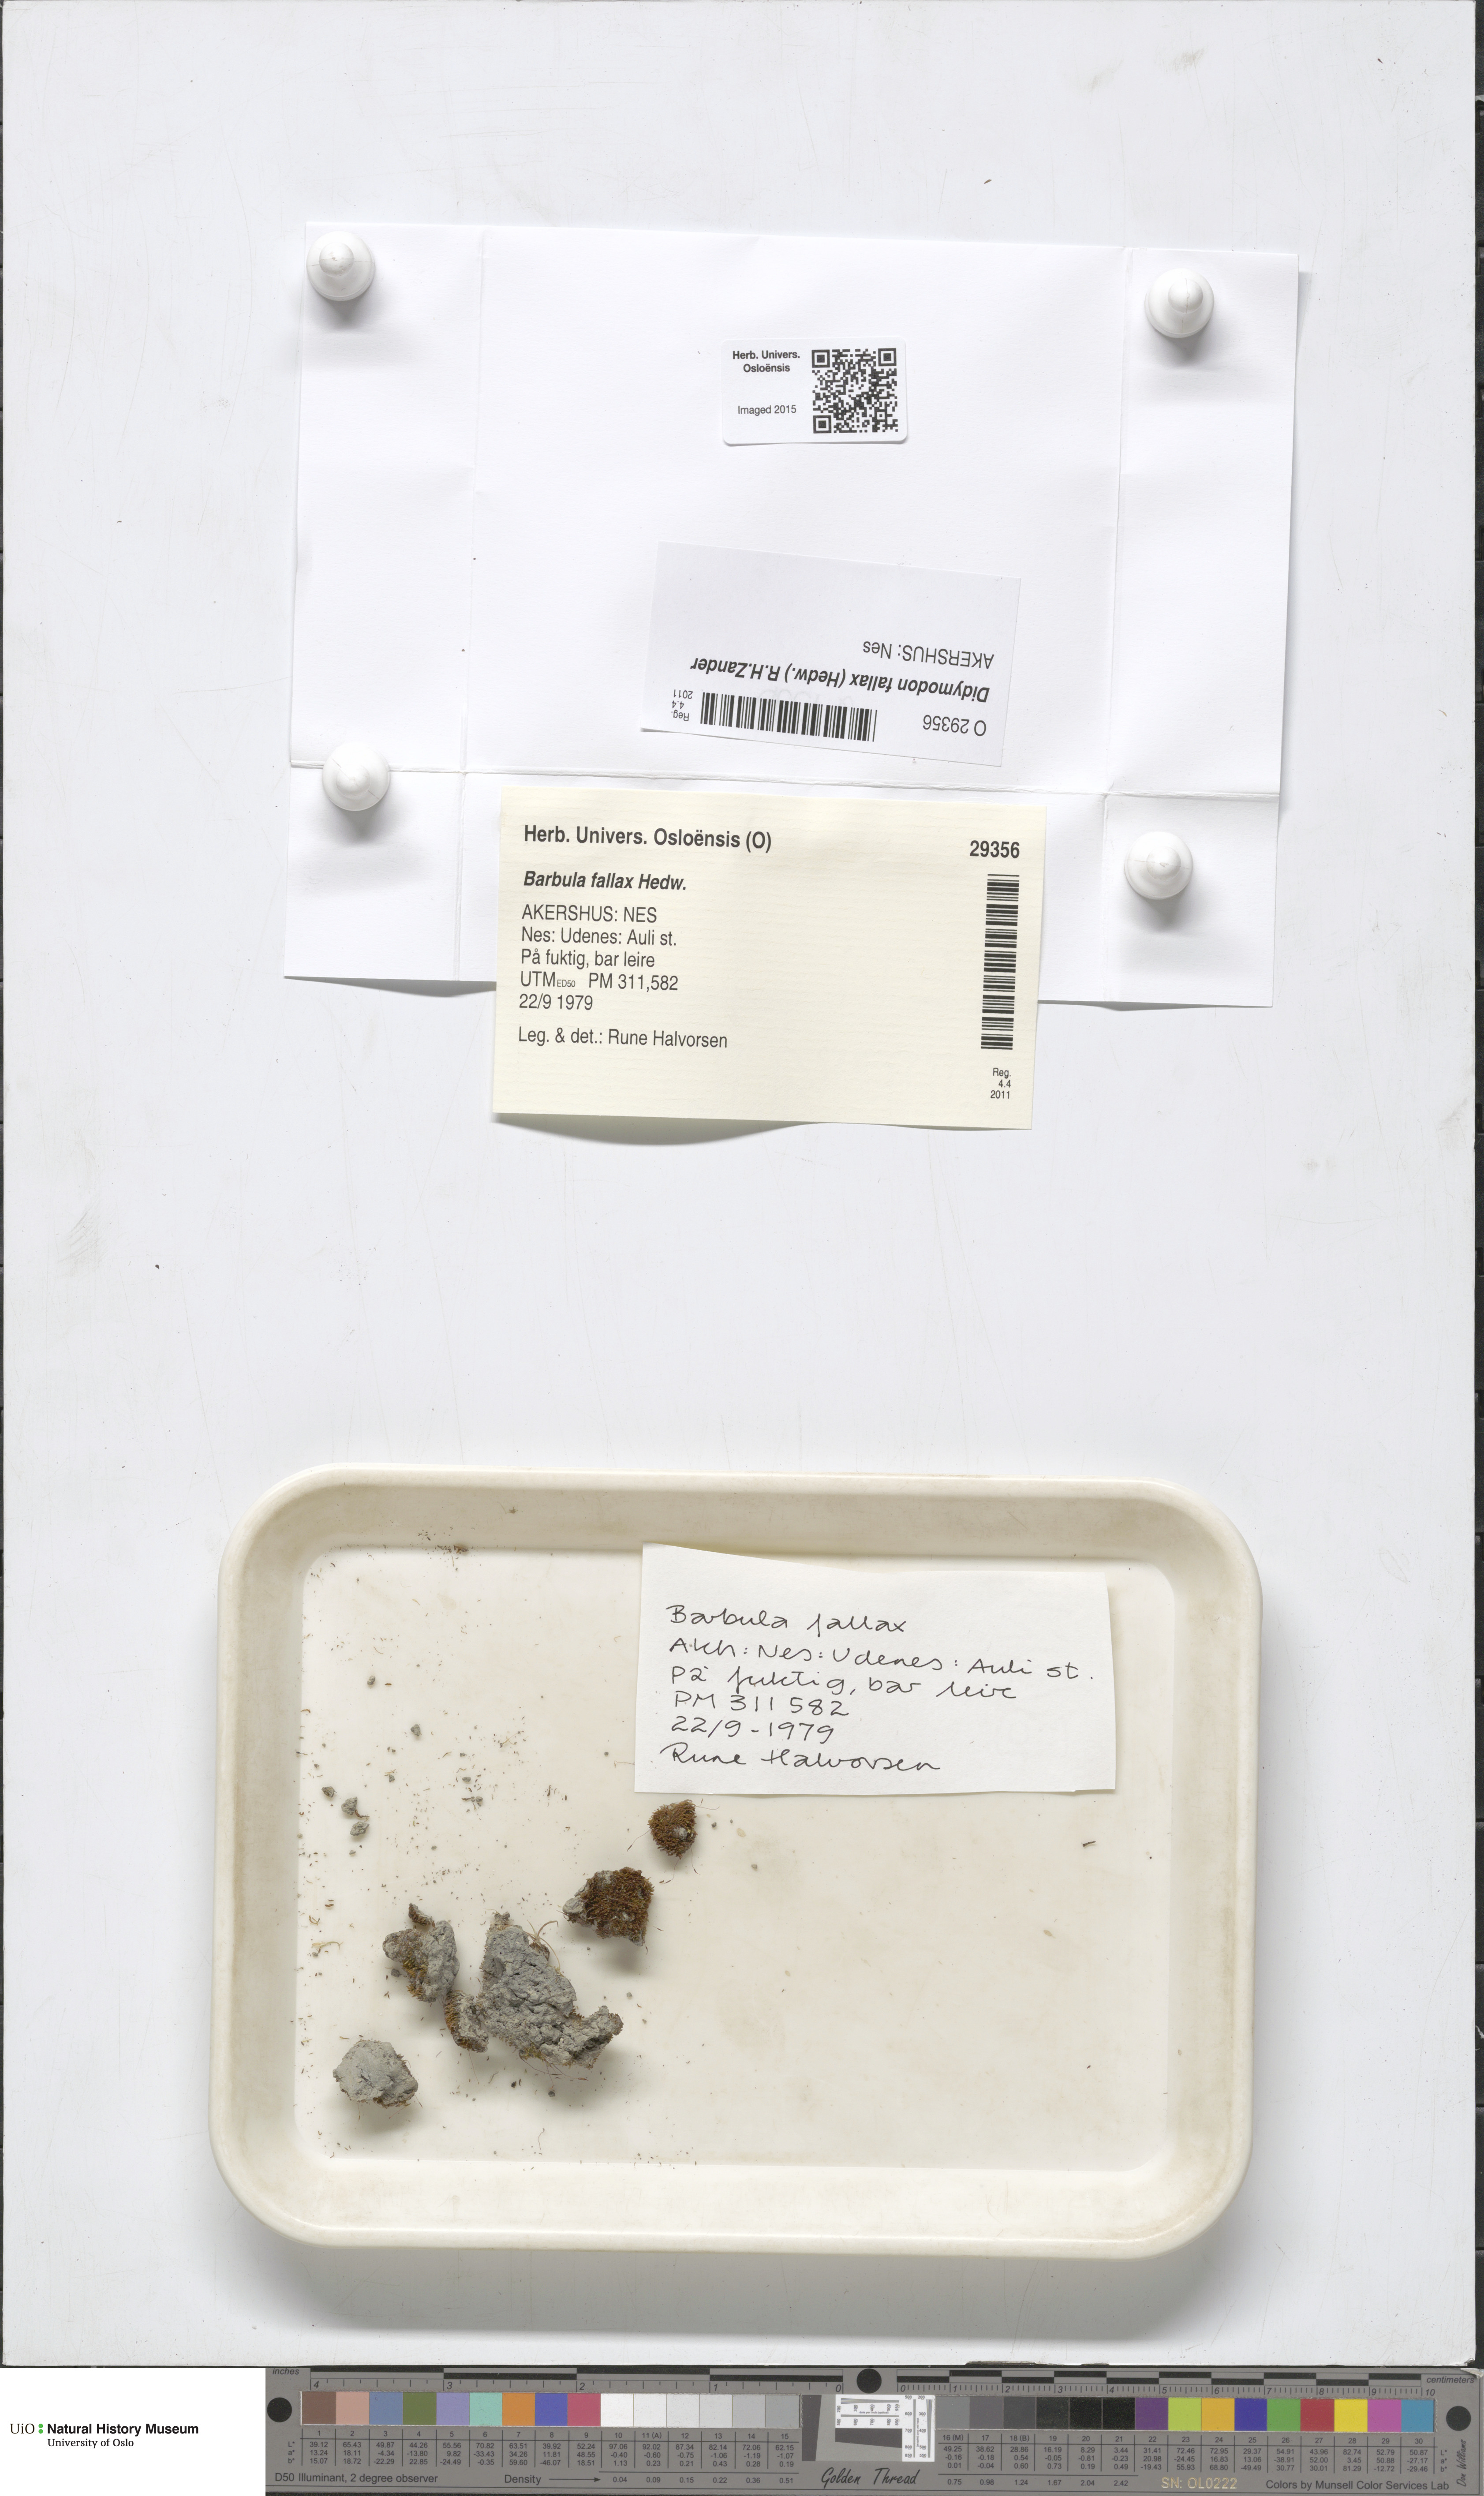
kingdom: Plantae
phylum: Bryophyta
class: Bryopsida
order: Pottiales
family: Pottiaceae
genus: Geheebia
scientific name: Geheebia fallax
